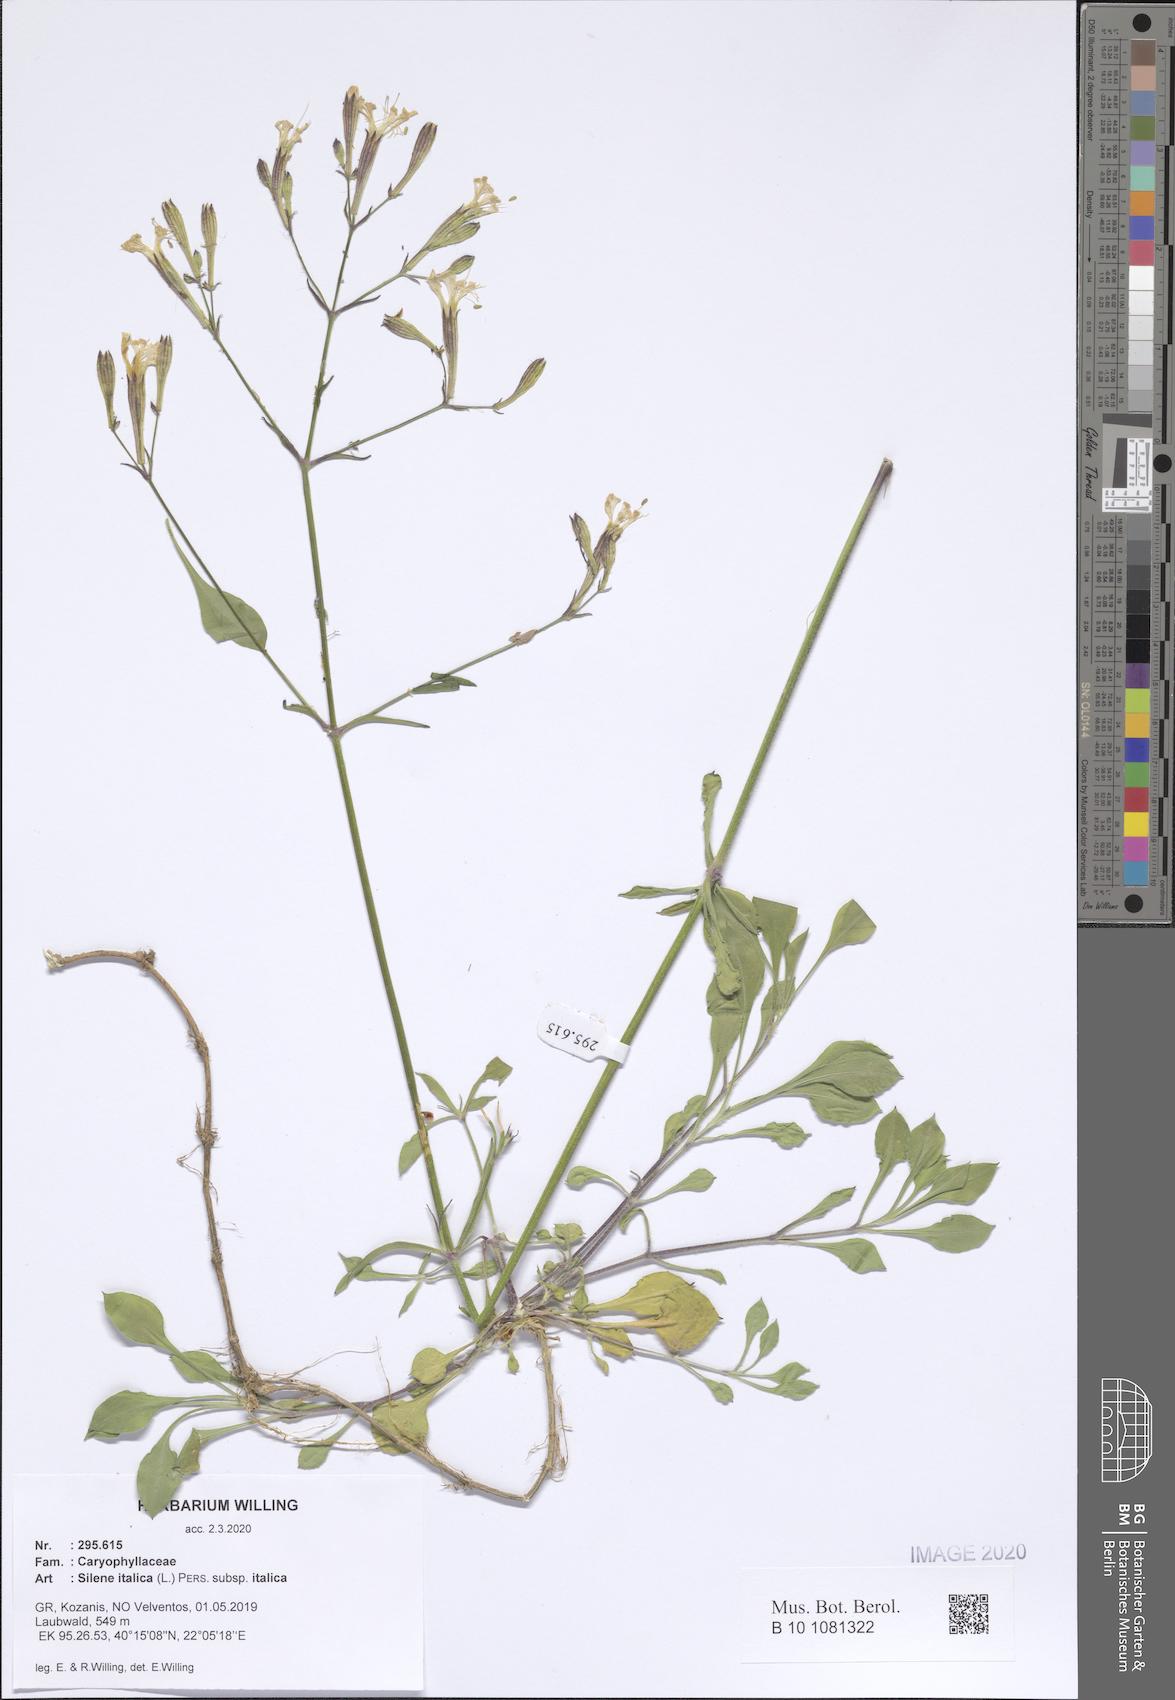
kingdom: Plantae
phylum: Tracheophyta
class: Magnoliopsida
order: Caryophyllales
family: Caryophyllaceae
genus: Silene
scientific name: Silene italica
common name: Italian catchfly
